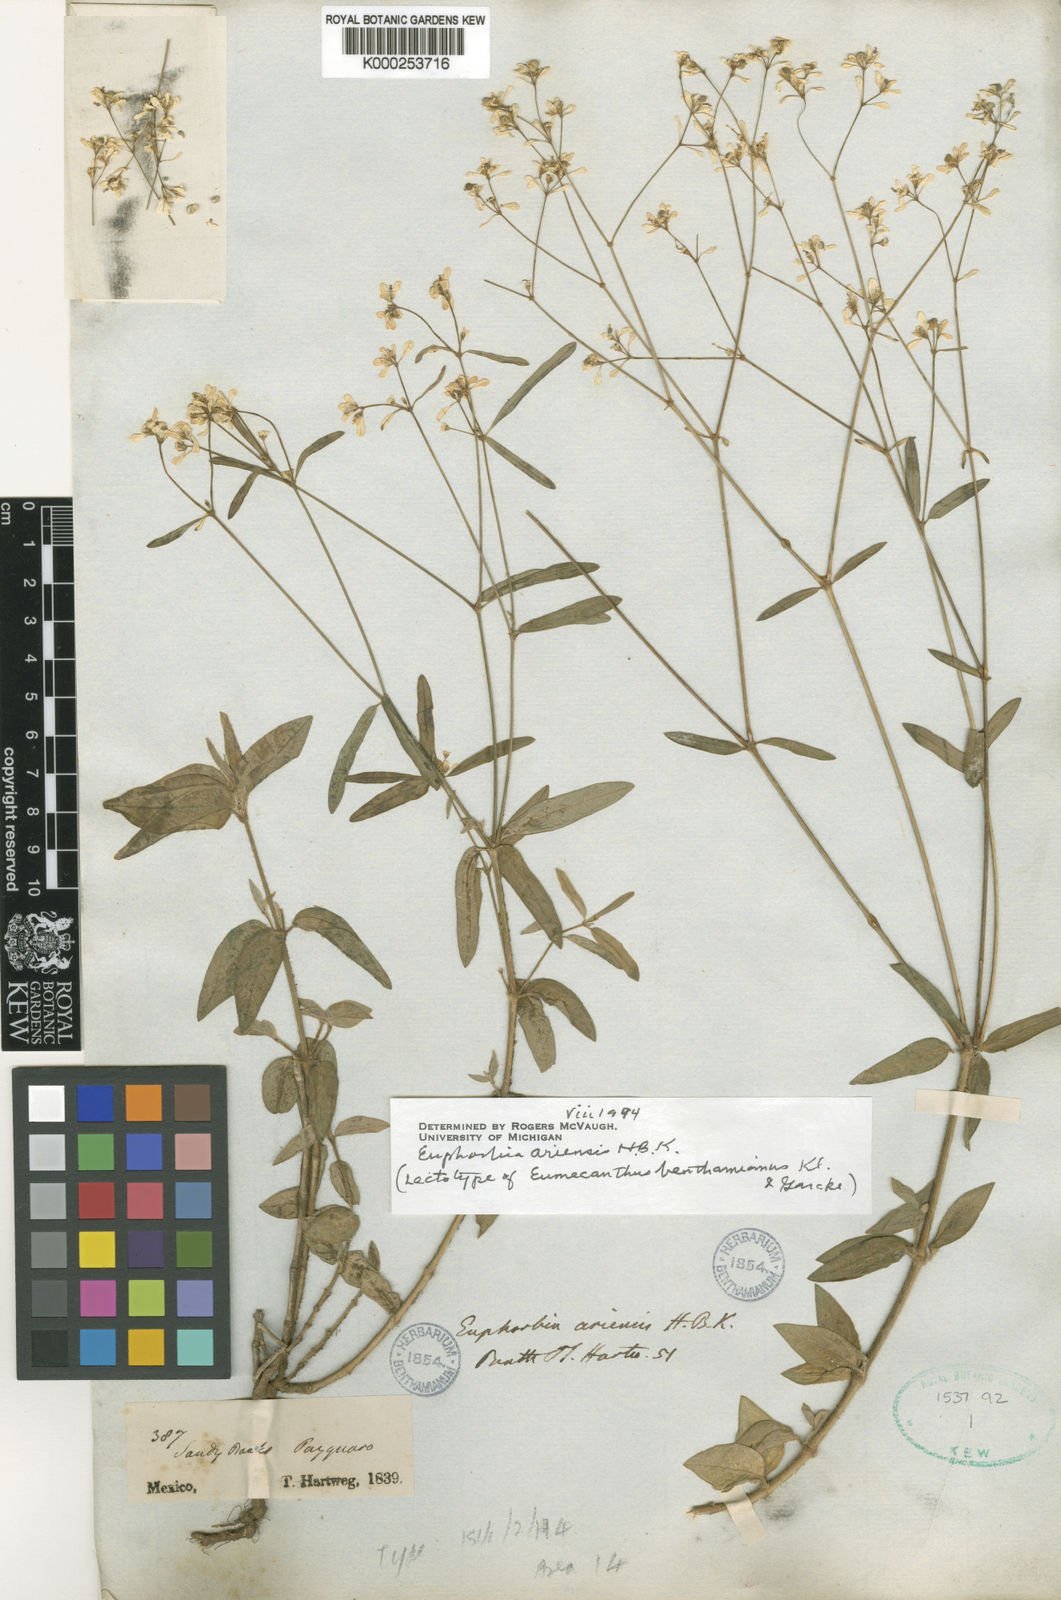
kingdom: Plantae
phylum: Tracheophyta
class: Magnoliopsida
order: Malpighiales
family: Euphorbiaceae
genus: Euphorbia
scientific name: Euphorbia ariensis
